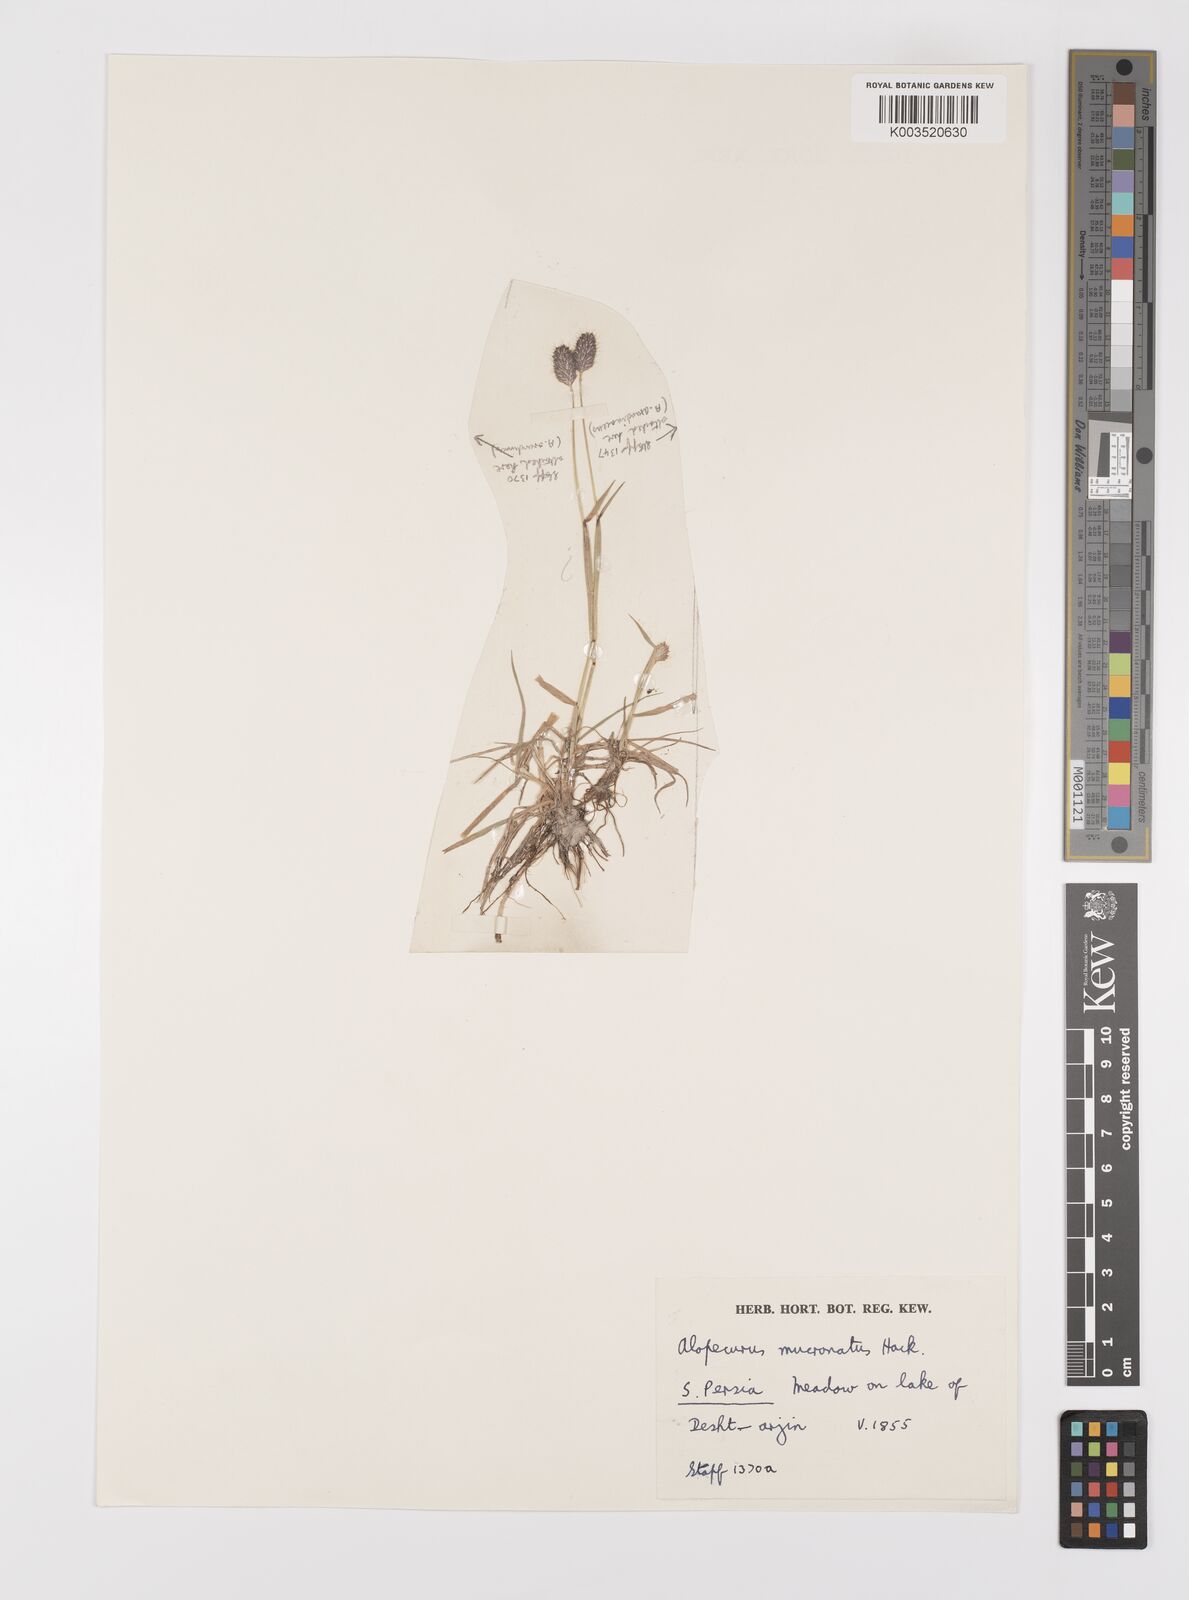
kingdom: Plantae
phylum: Tracheophyta
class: Liliopsida
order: Poales
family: Poaceae
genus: Alopecurus
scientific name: Alopecurus mucronatus
